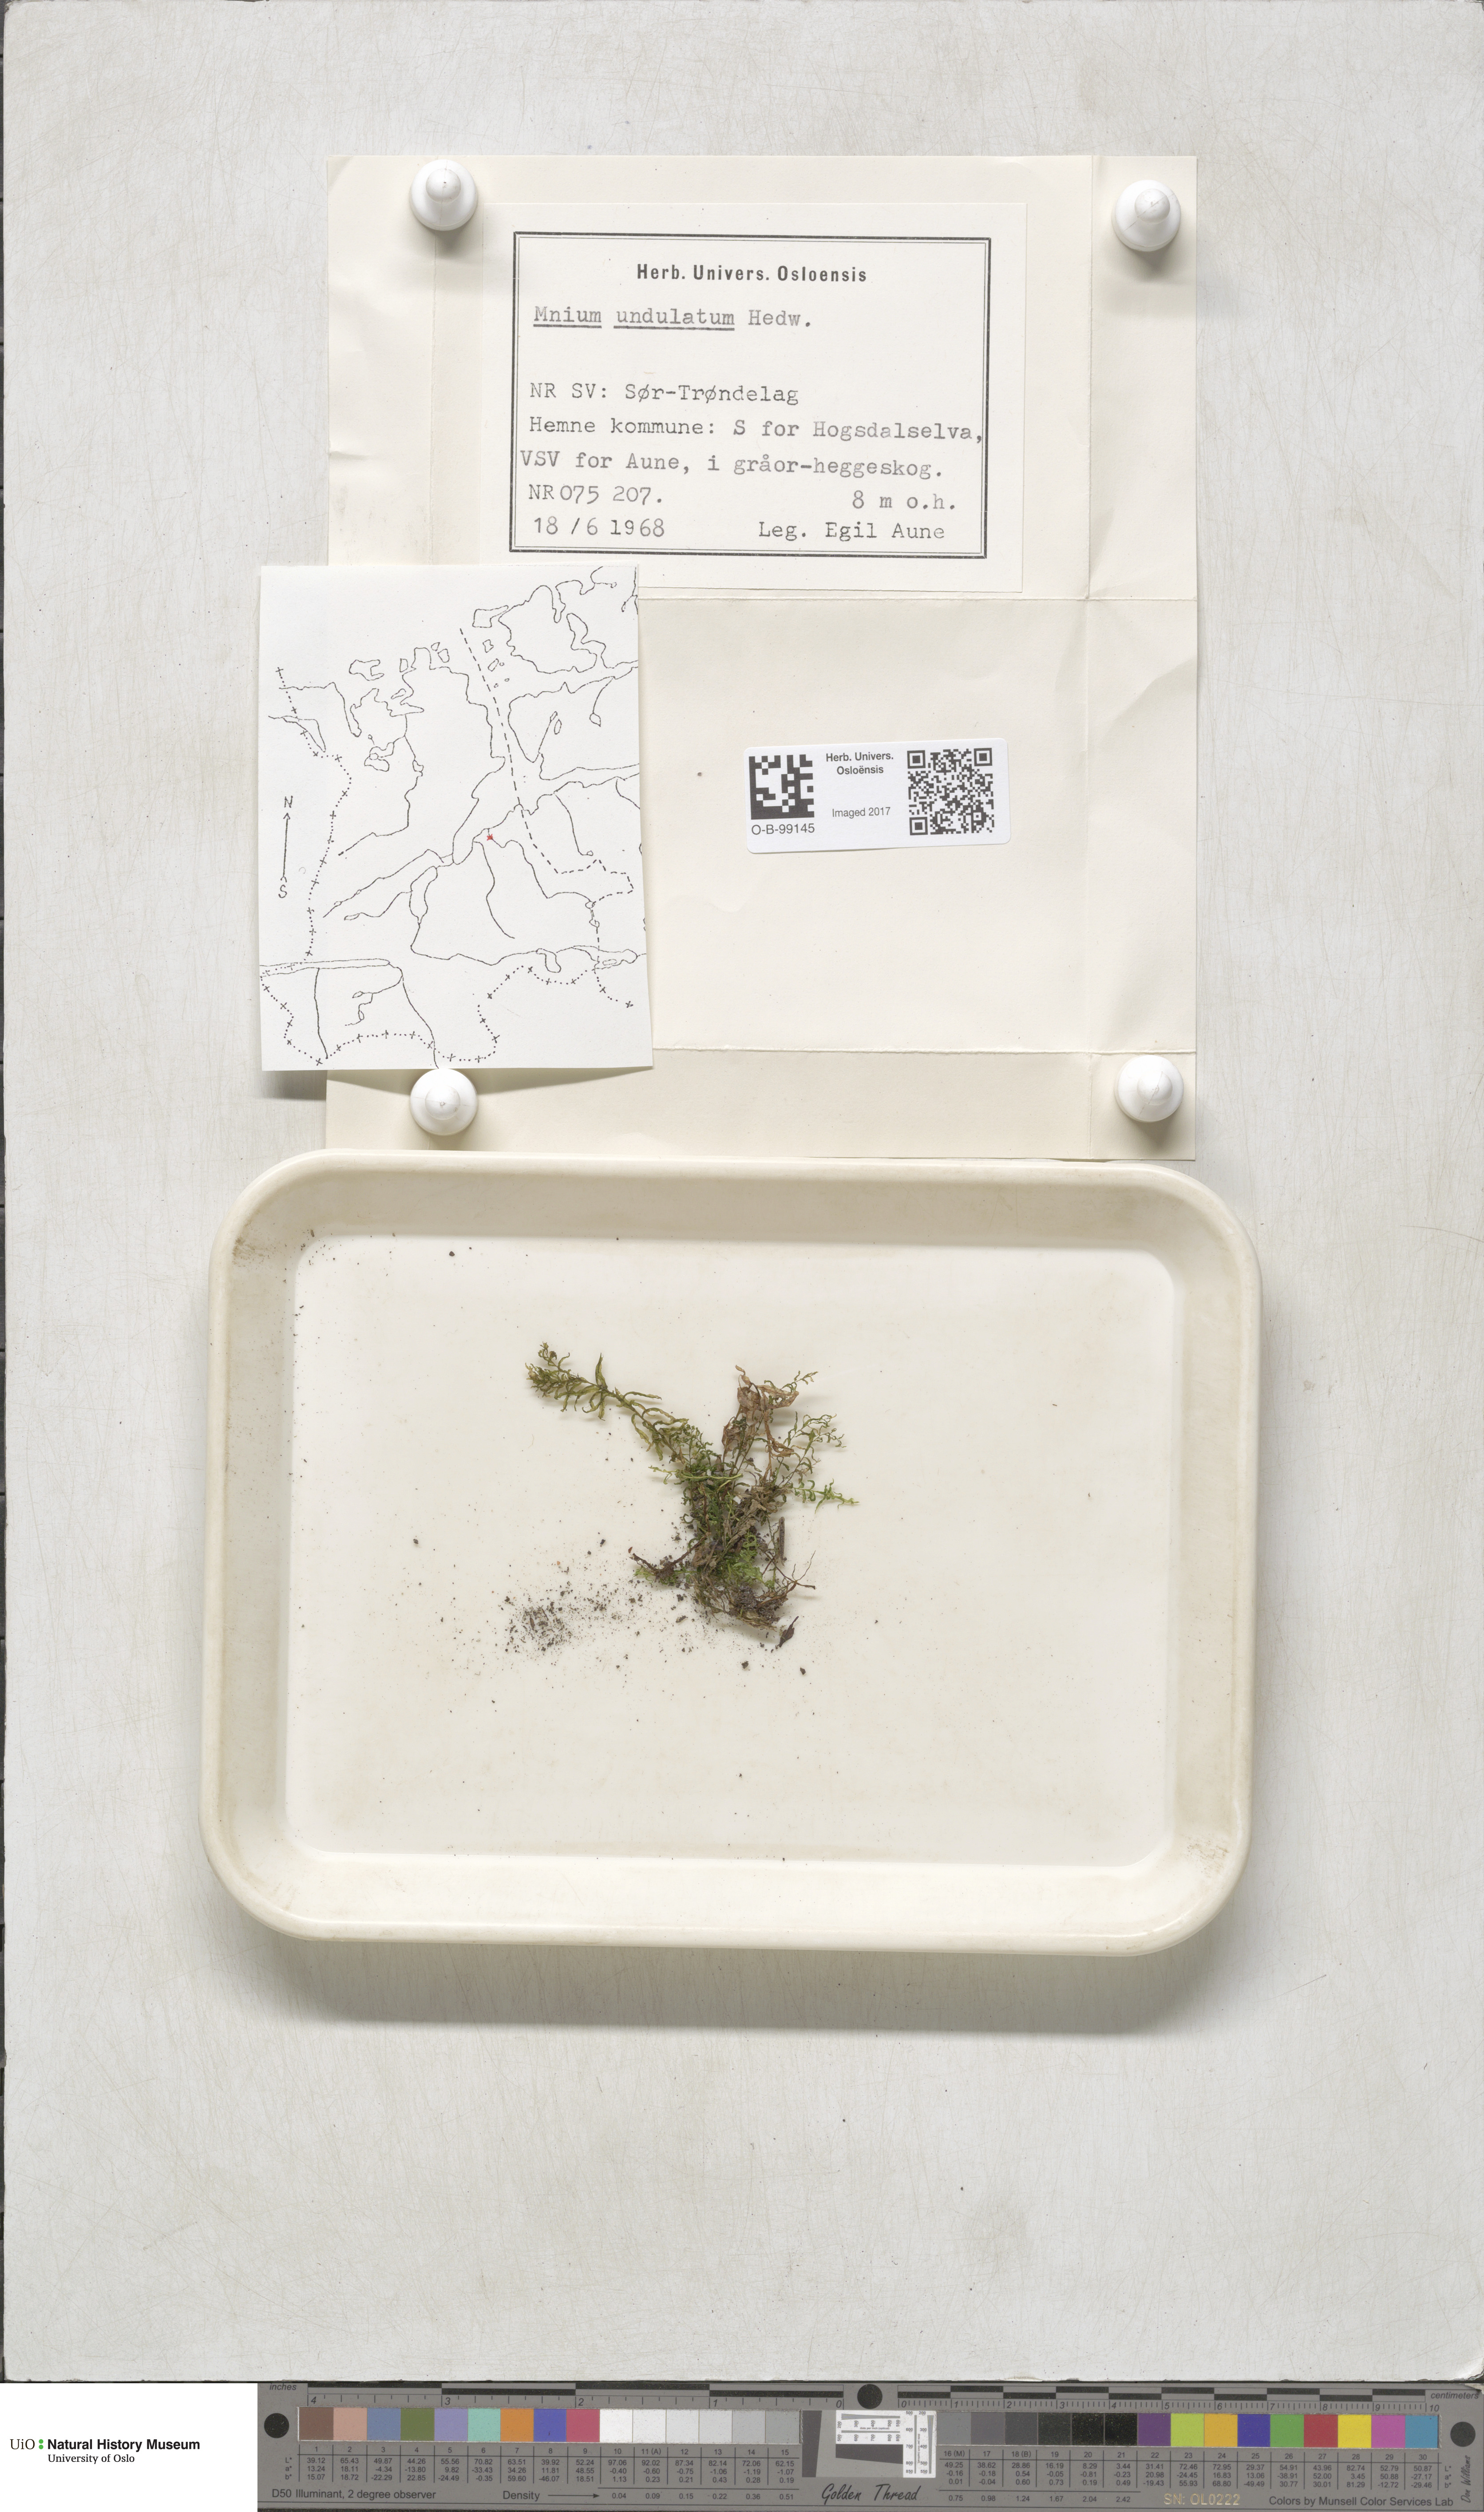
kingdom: Plantae
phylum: Bryophyta
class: Bryopsida
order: Bryales
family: Mniaceae
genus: Plagiomnium
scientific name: Plagiomnium undulatum
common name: Hart's-tongue thyme-moss
